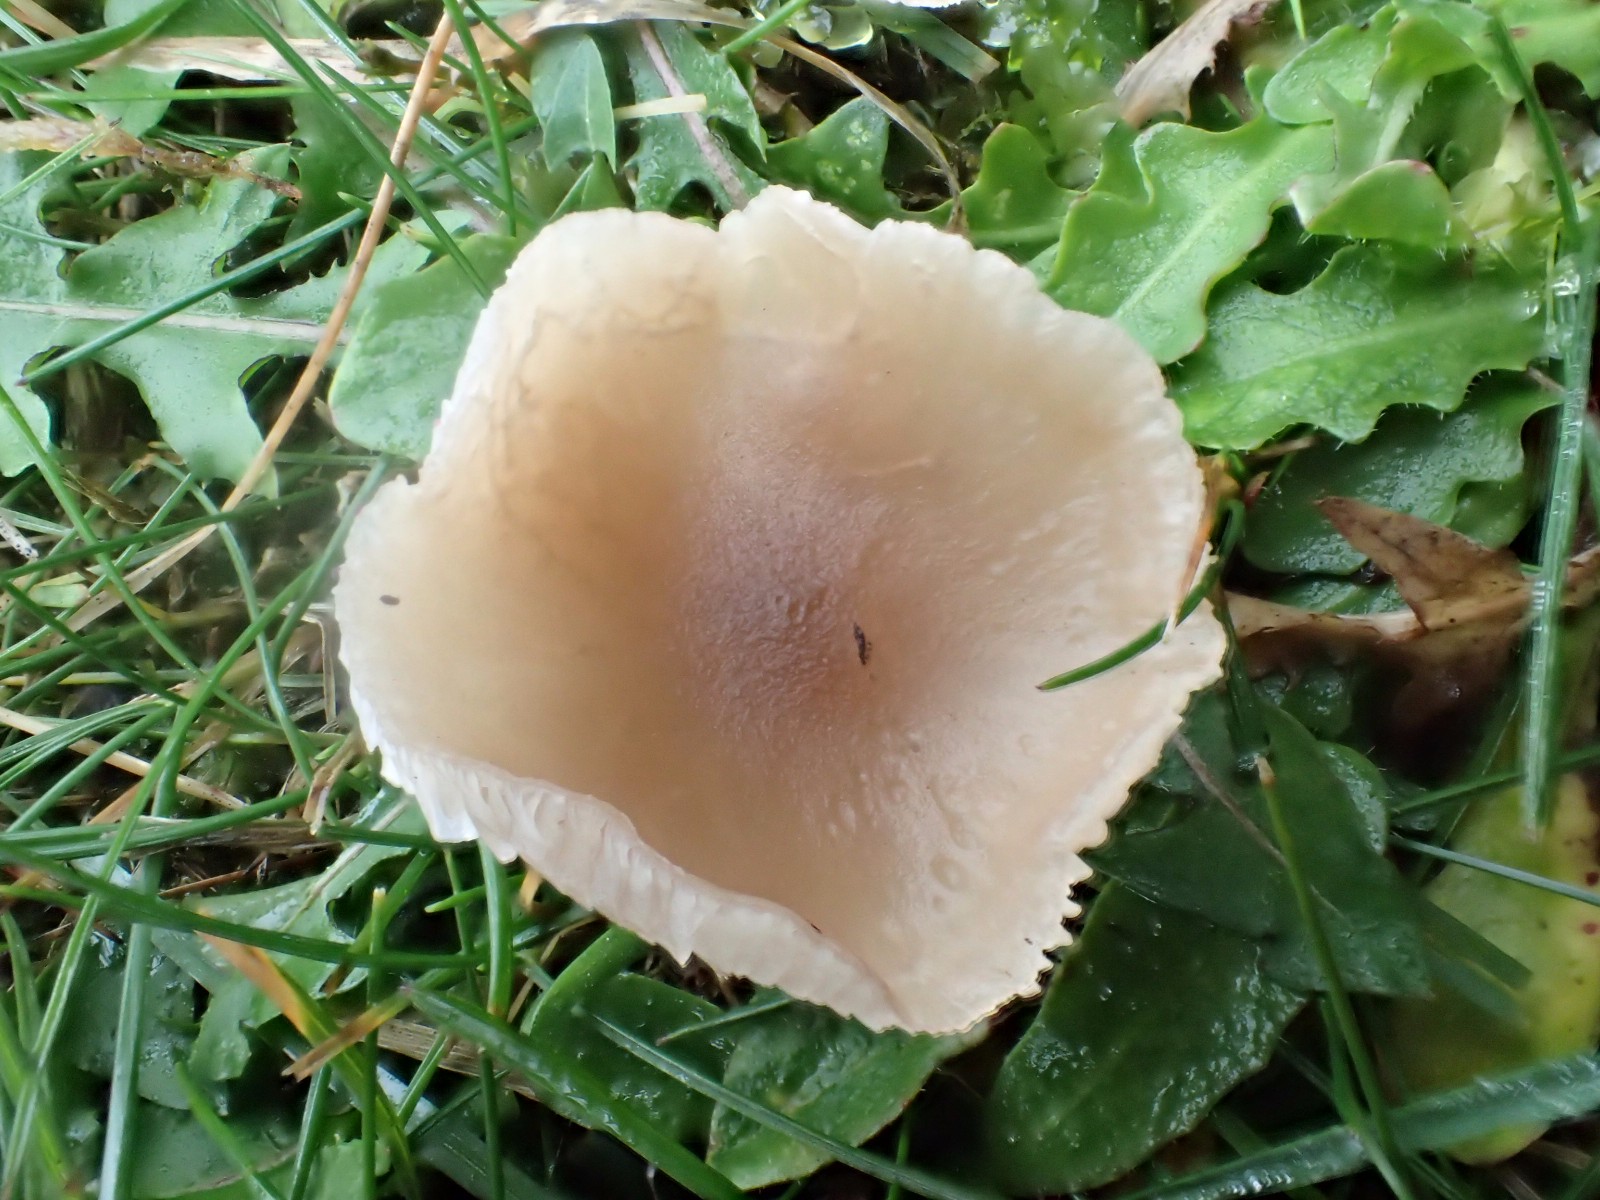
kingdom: Fungi
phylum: Basidiomycota
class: Agaricomycetes
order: Agaricales
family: Tricholomataceae
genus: Clitocybe
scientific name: Clitocybe fragrans
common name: vellugtende tragthat
